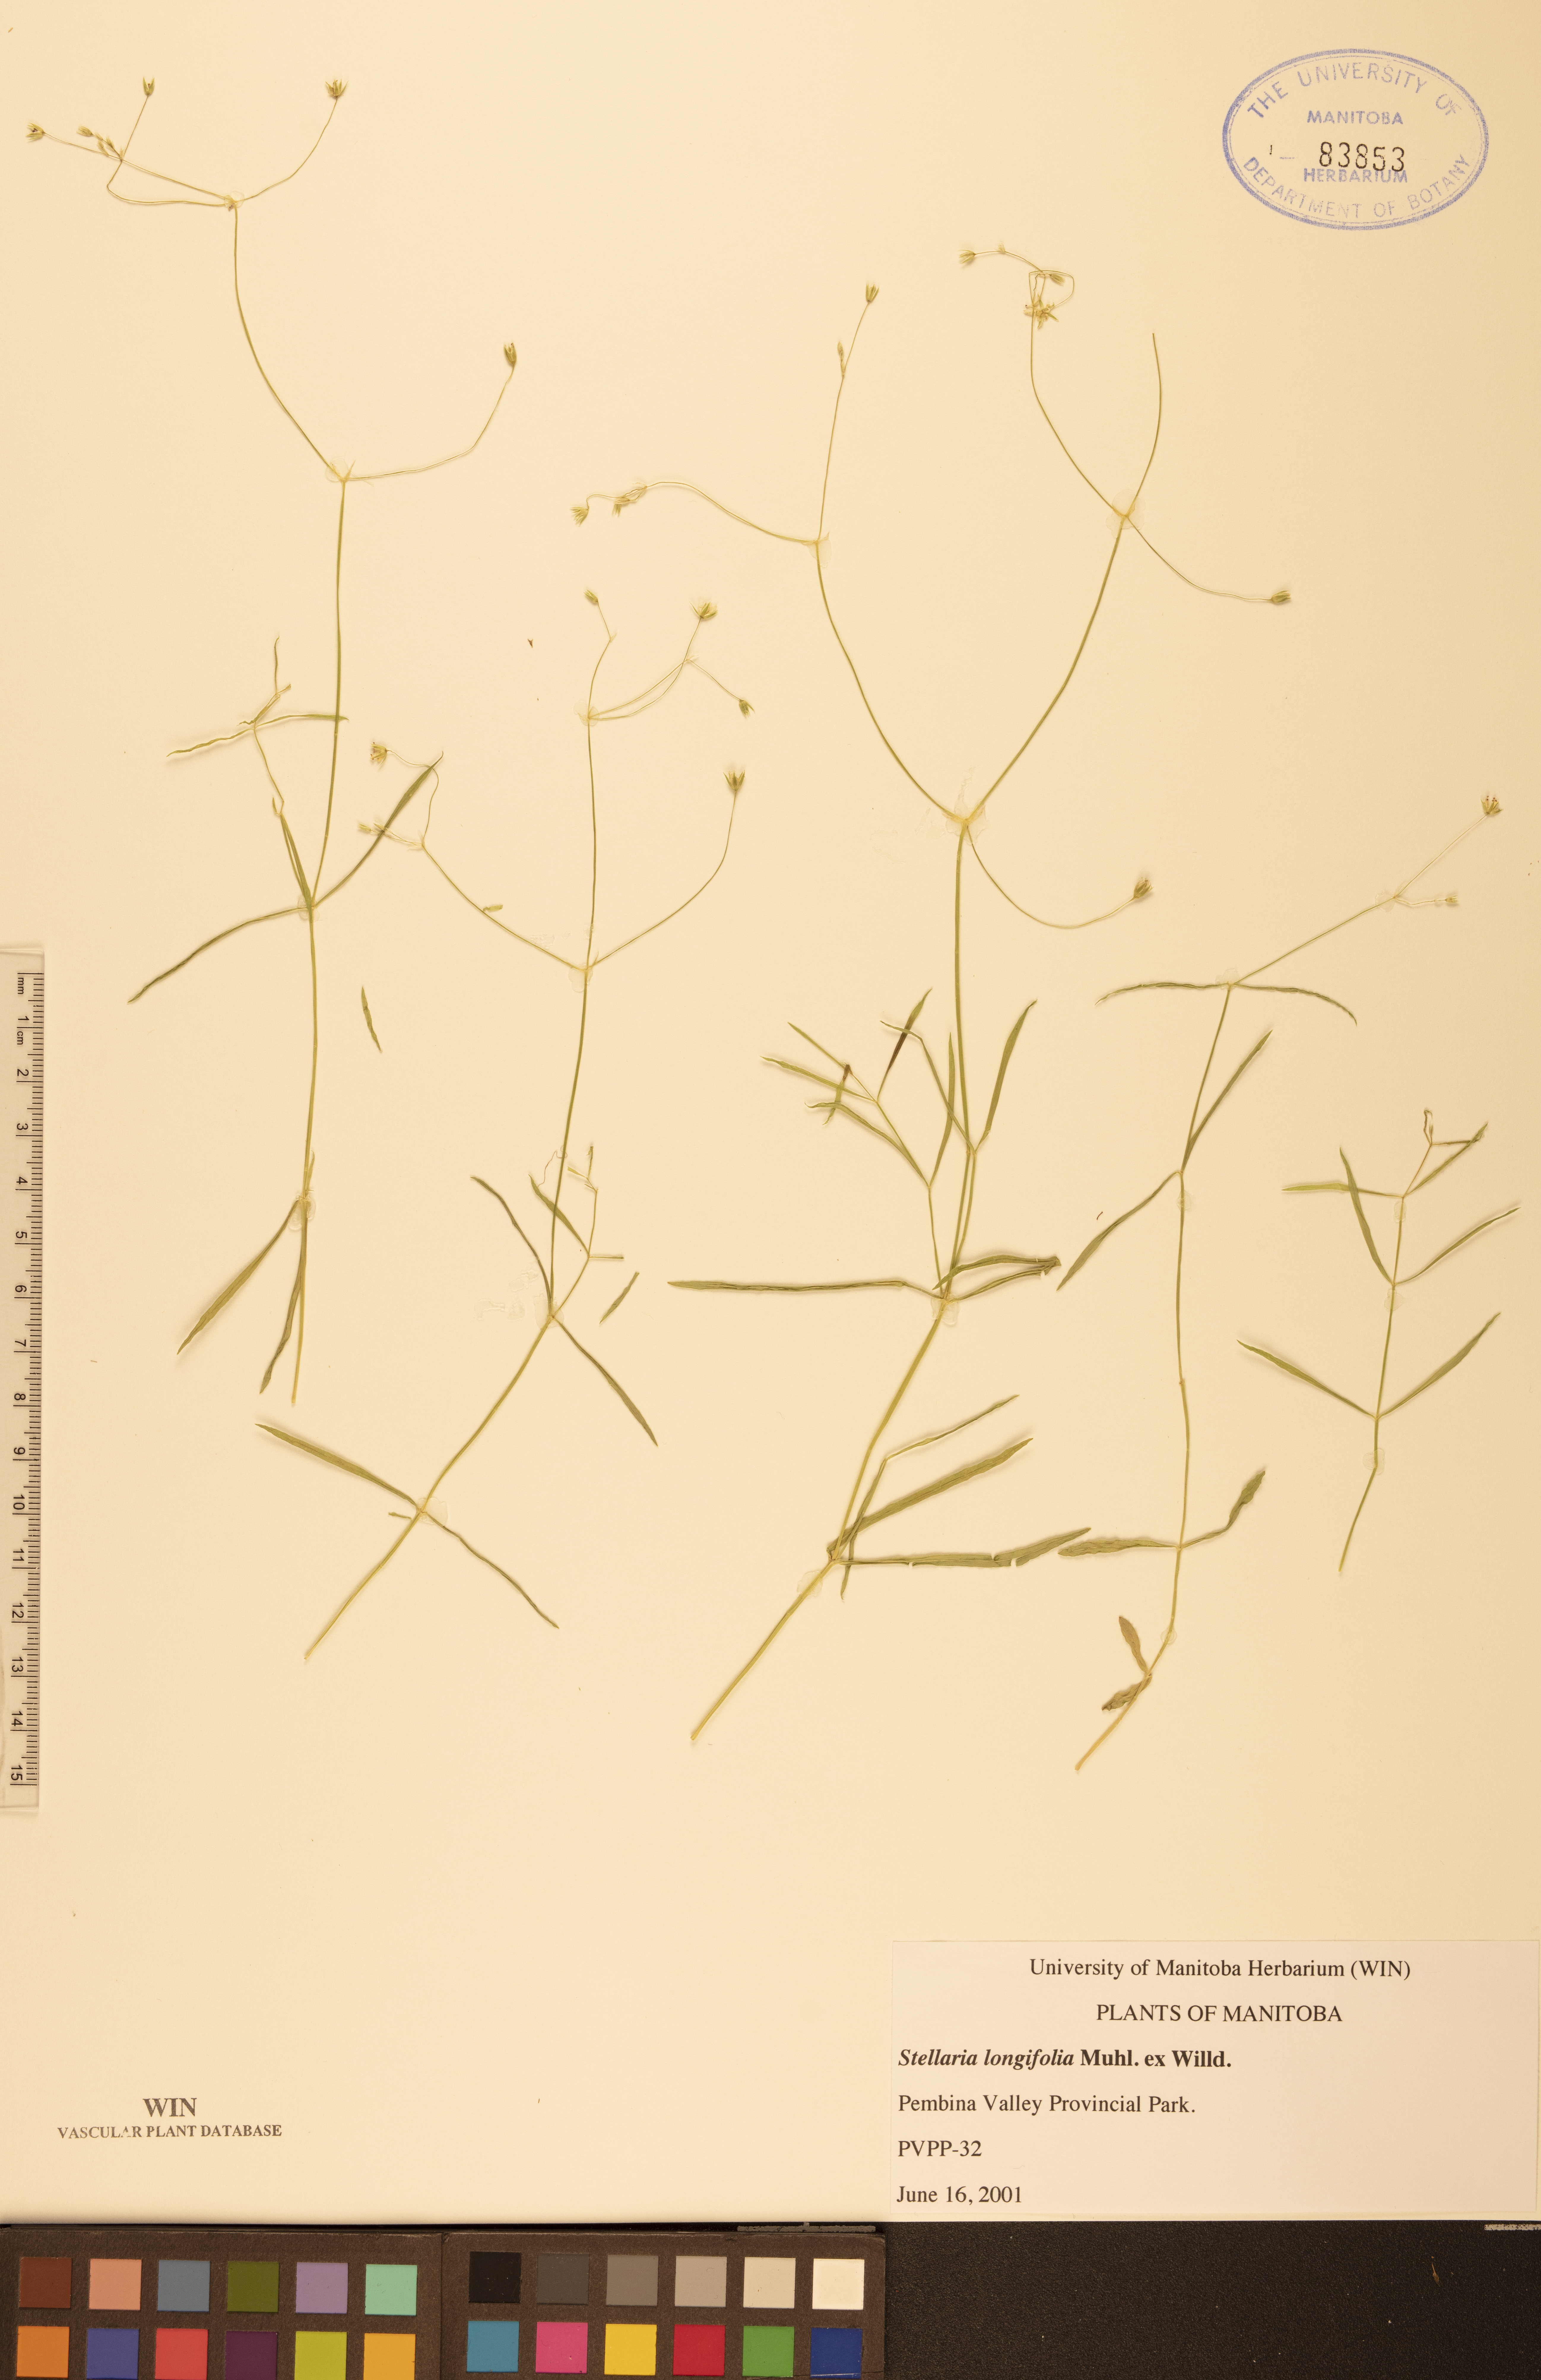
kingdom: Plantae
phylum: Tracheophyta
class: Magnoliopsida
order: Caryophyllales
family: Caryophyllaceae
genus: Stellaria
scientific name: Stellaria longifolia
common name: Long-leaved chickweed
